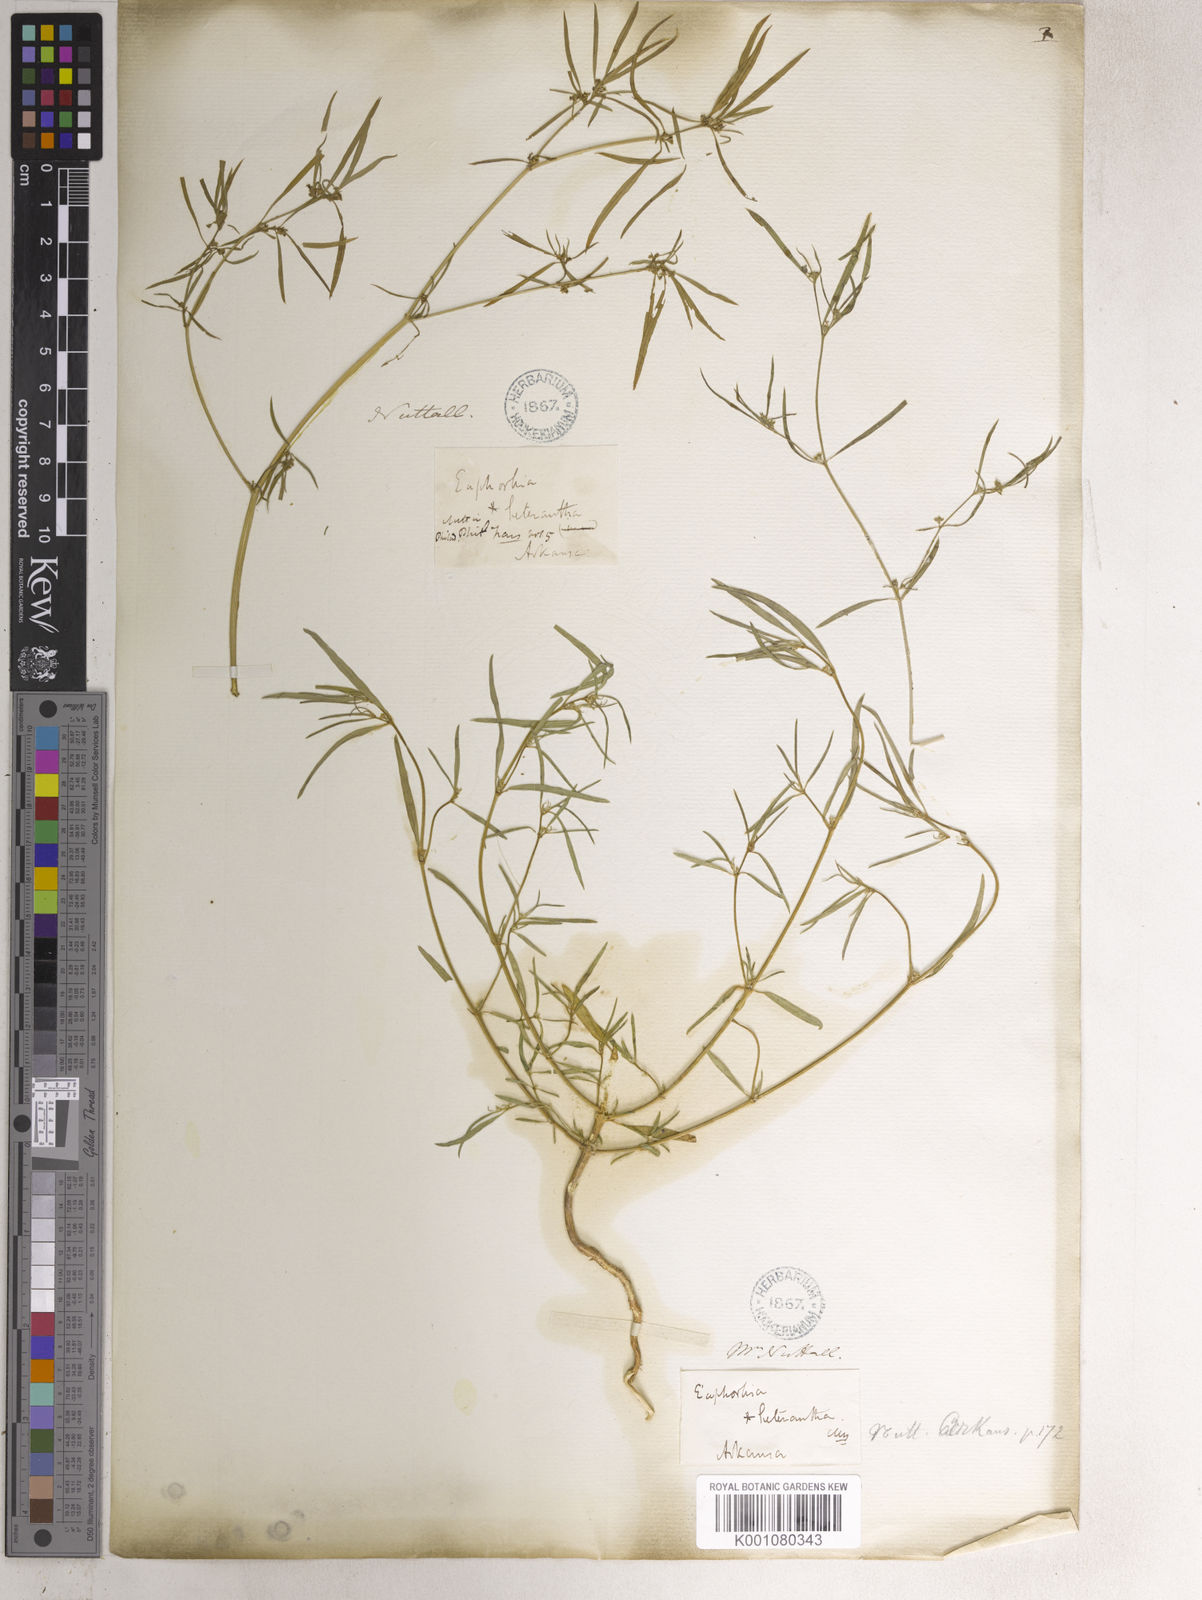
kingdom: Plantae
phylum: Tracheophyta
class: Magnoliopsida
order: Malpighiales
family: Euphorbiaceae
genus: Euphorbia
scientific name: Euphorbia
